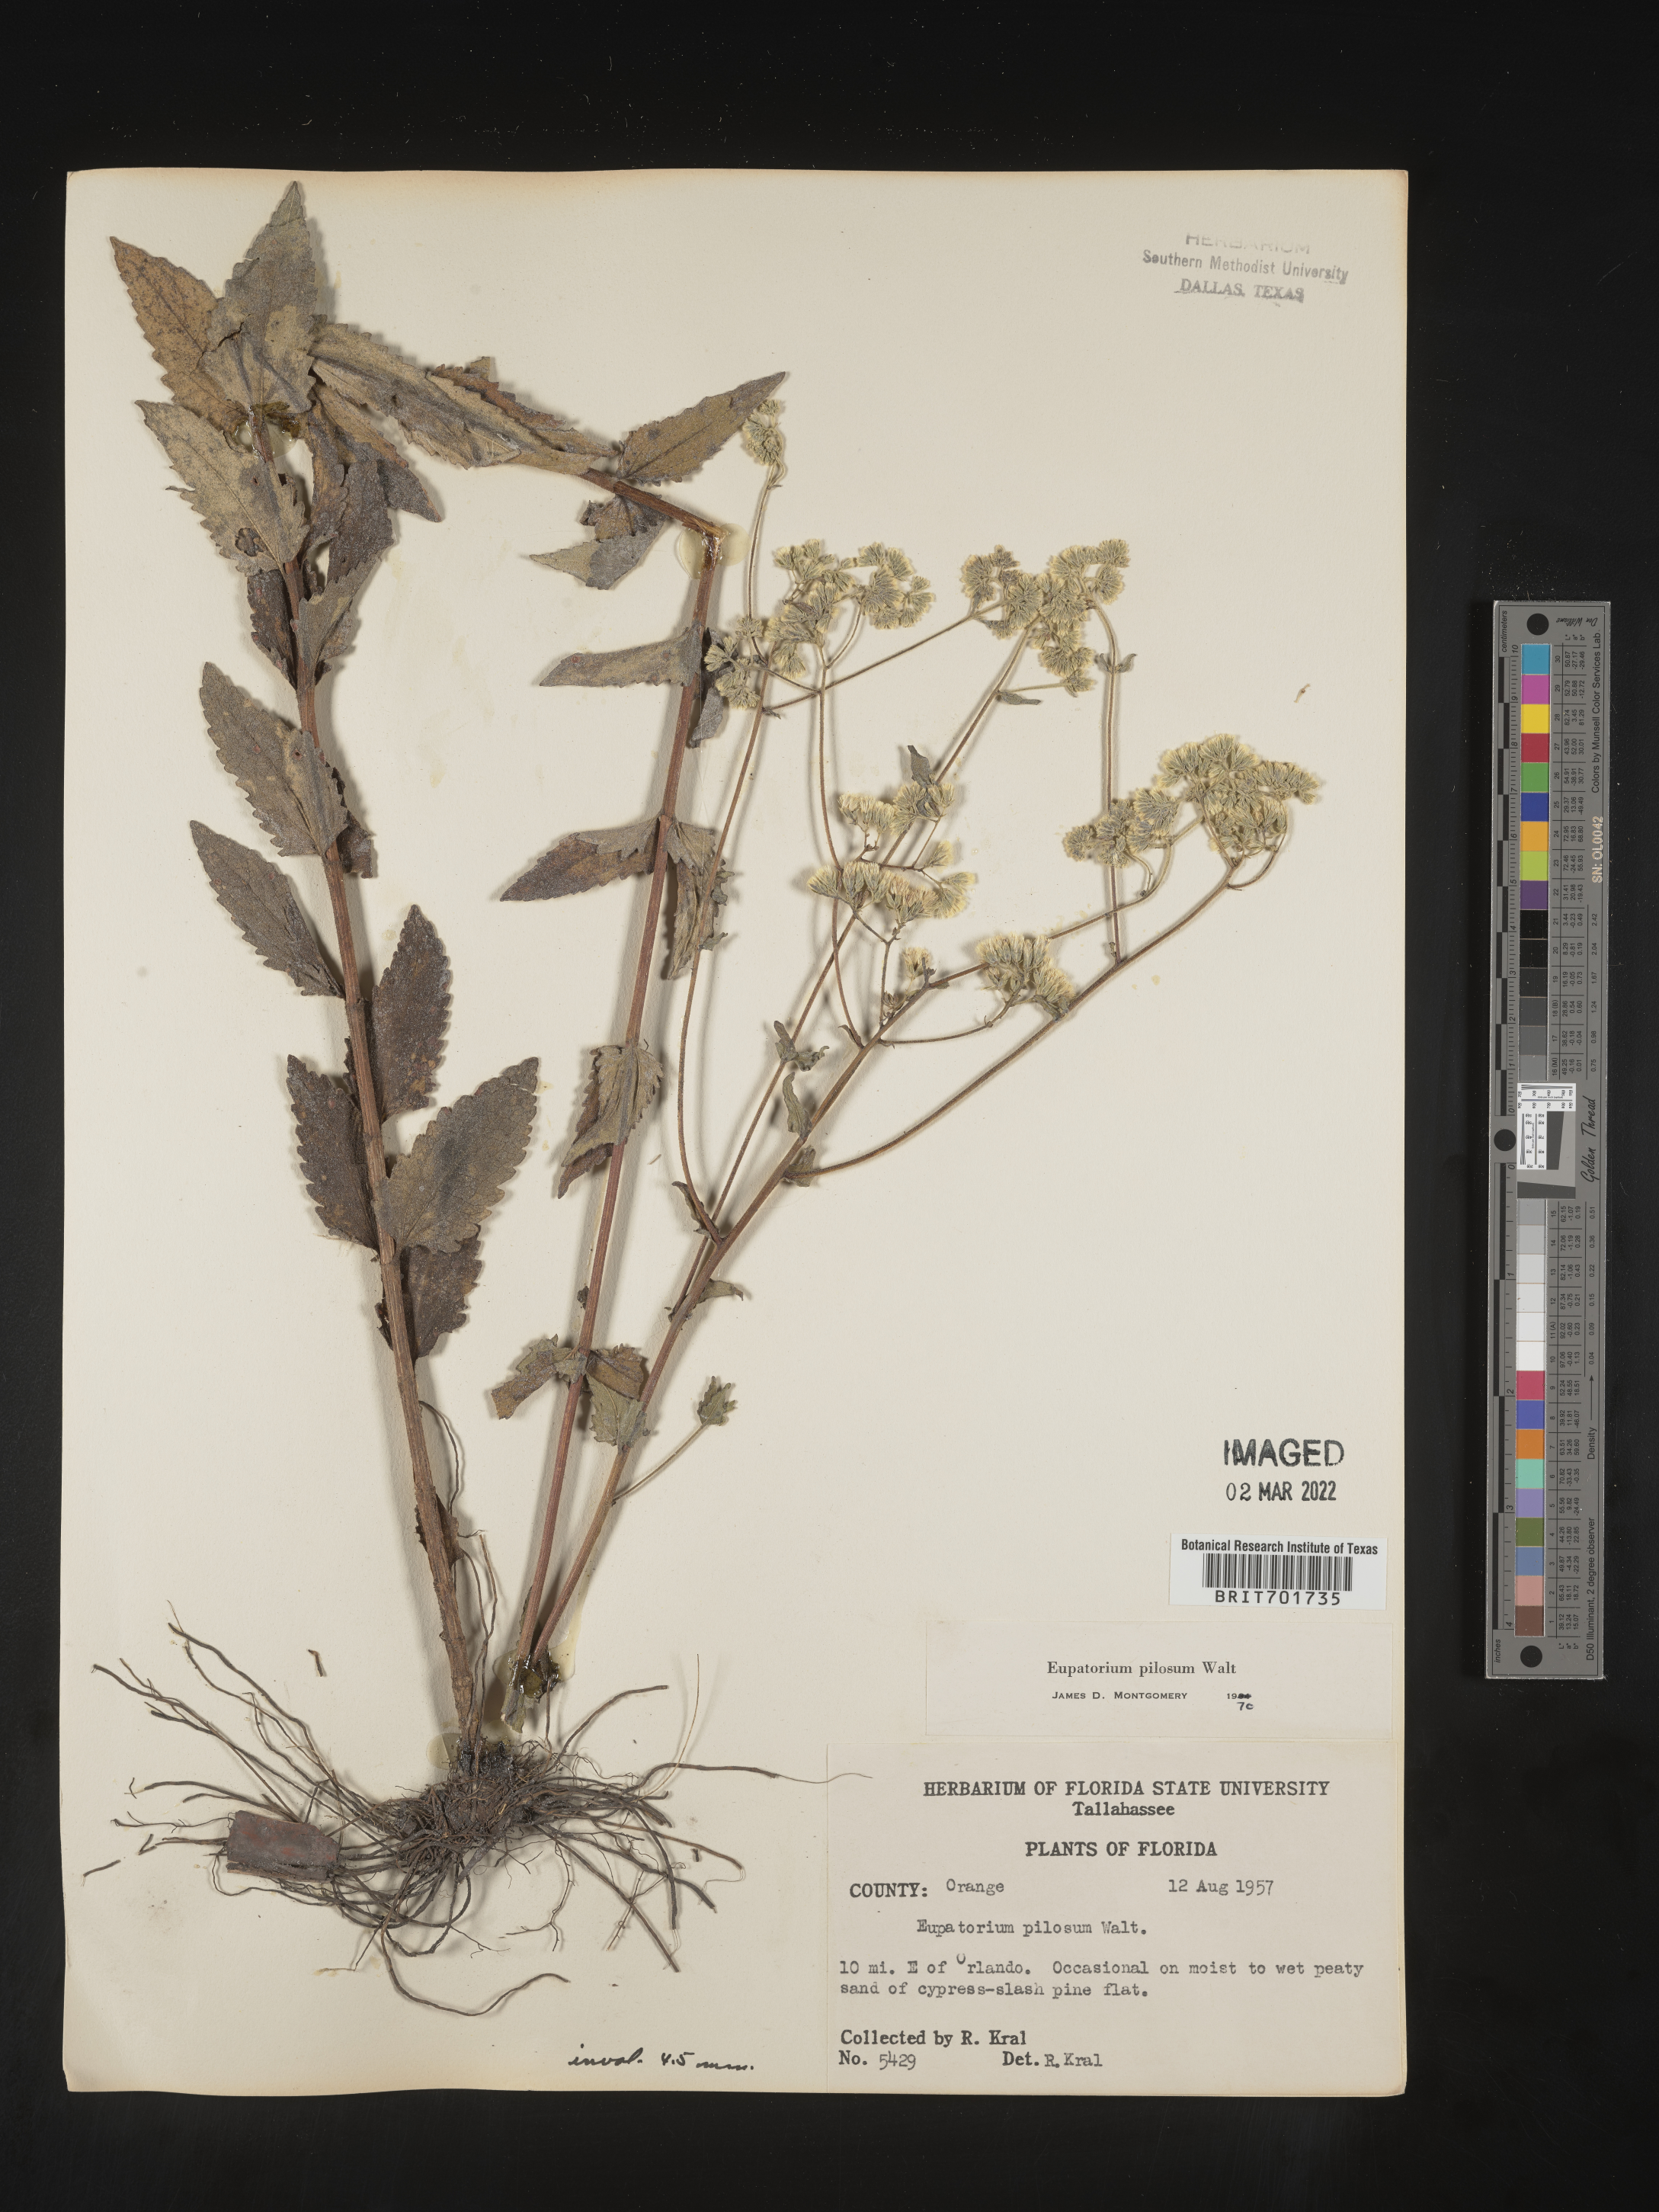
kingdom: Plantae
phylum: Tracheophyta
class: Magnoliopsida
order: Asterales
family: Asteraceae
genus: Eupatorium
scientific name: Eupatorium pilosum
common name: Rough boneset
